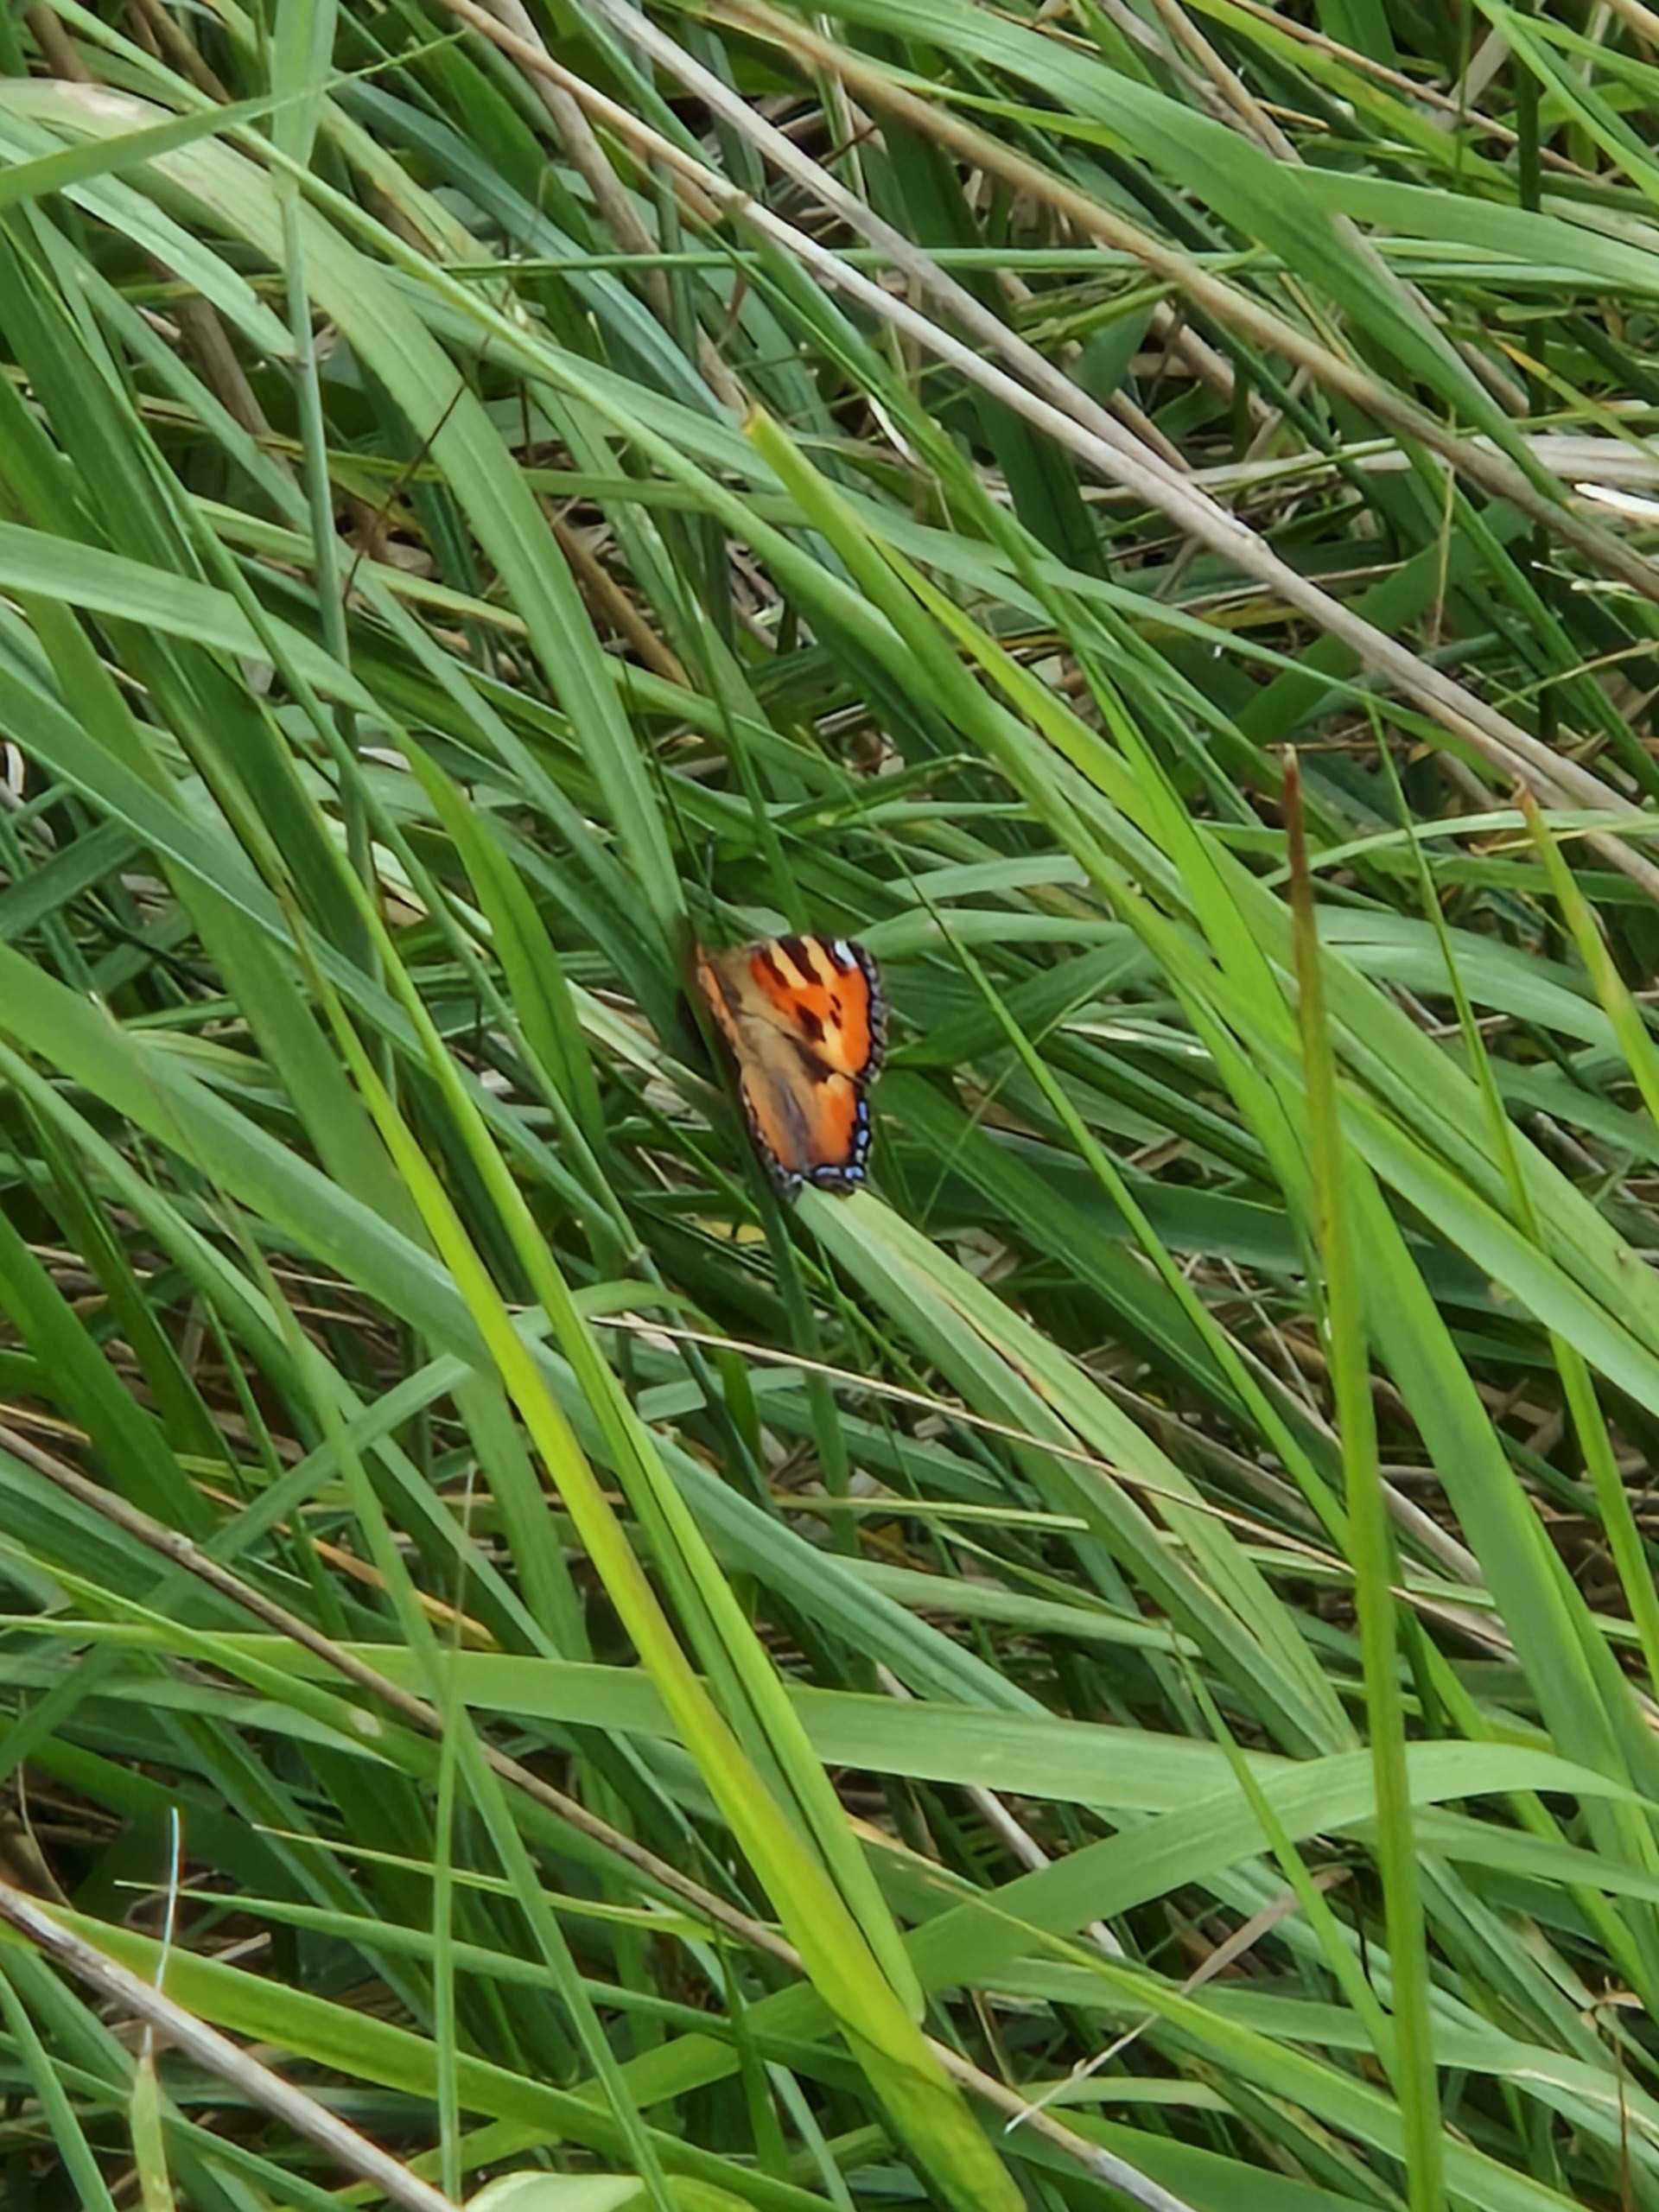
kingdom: Animalia
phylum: Arthropoda
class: Insecta
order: Lepidoptera
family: Nymphalidae
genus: Aglais
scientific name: Aglais urticae
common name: Nældens takvinge
